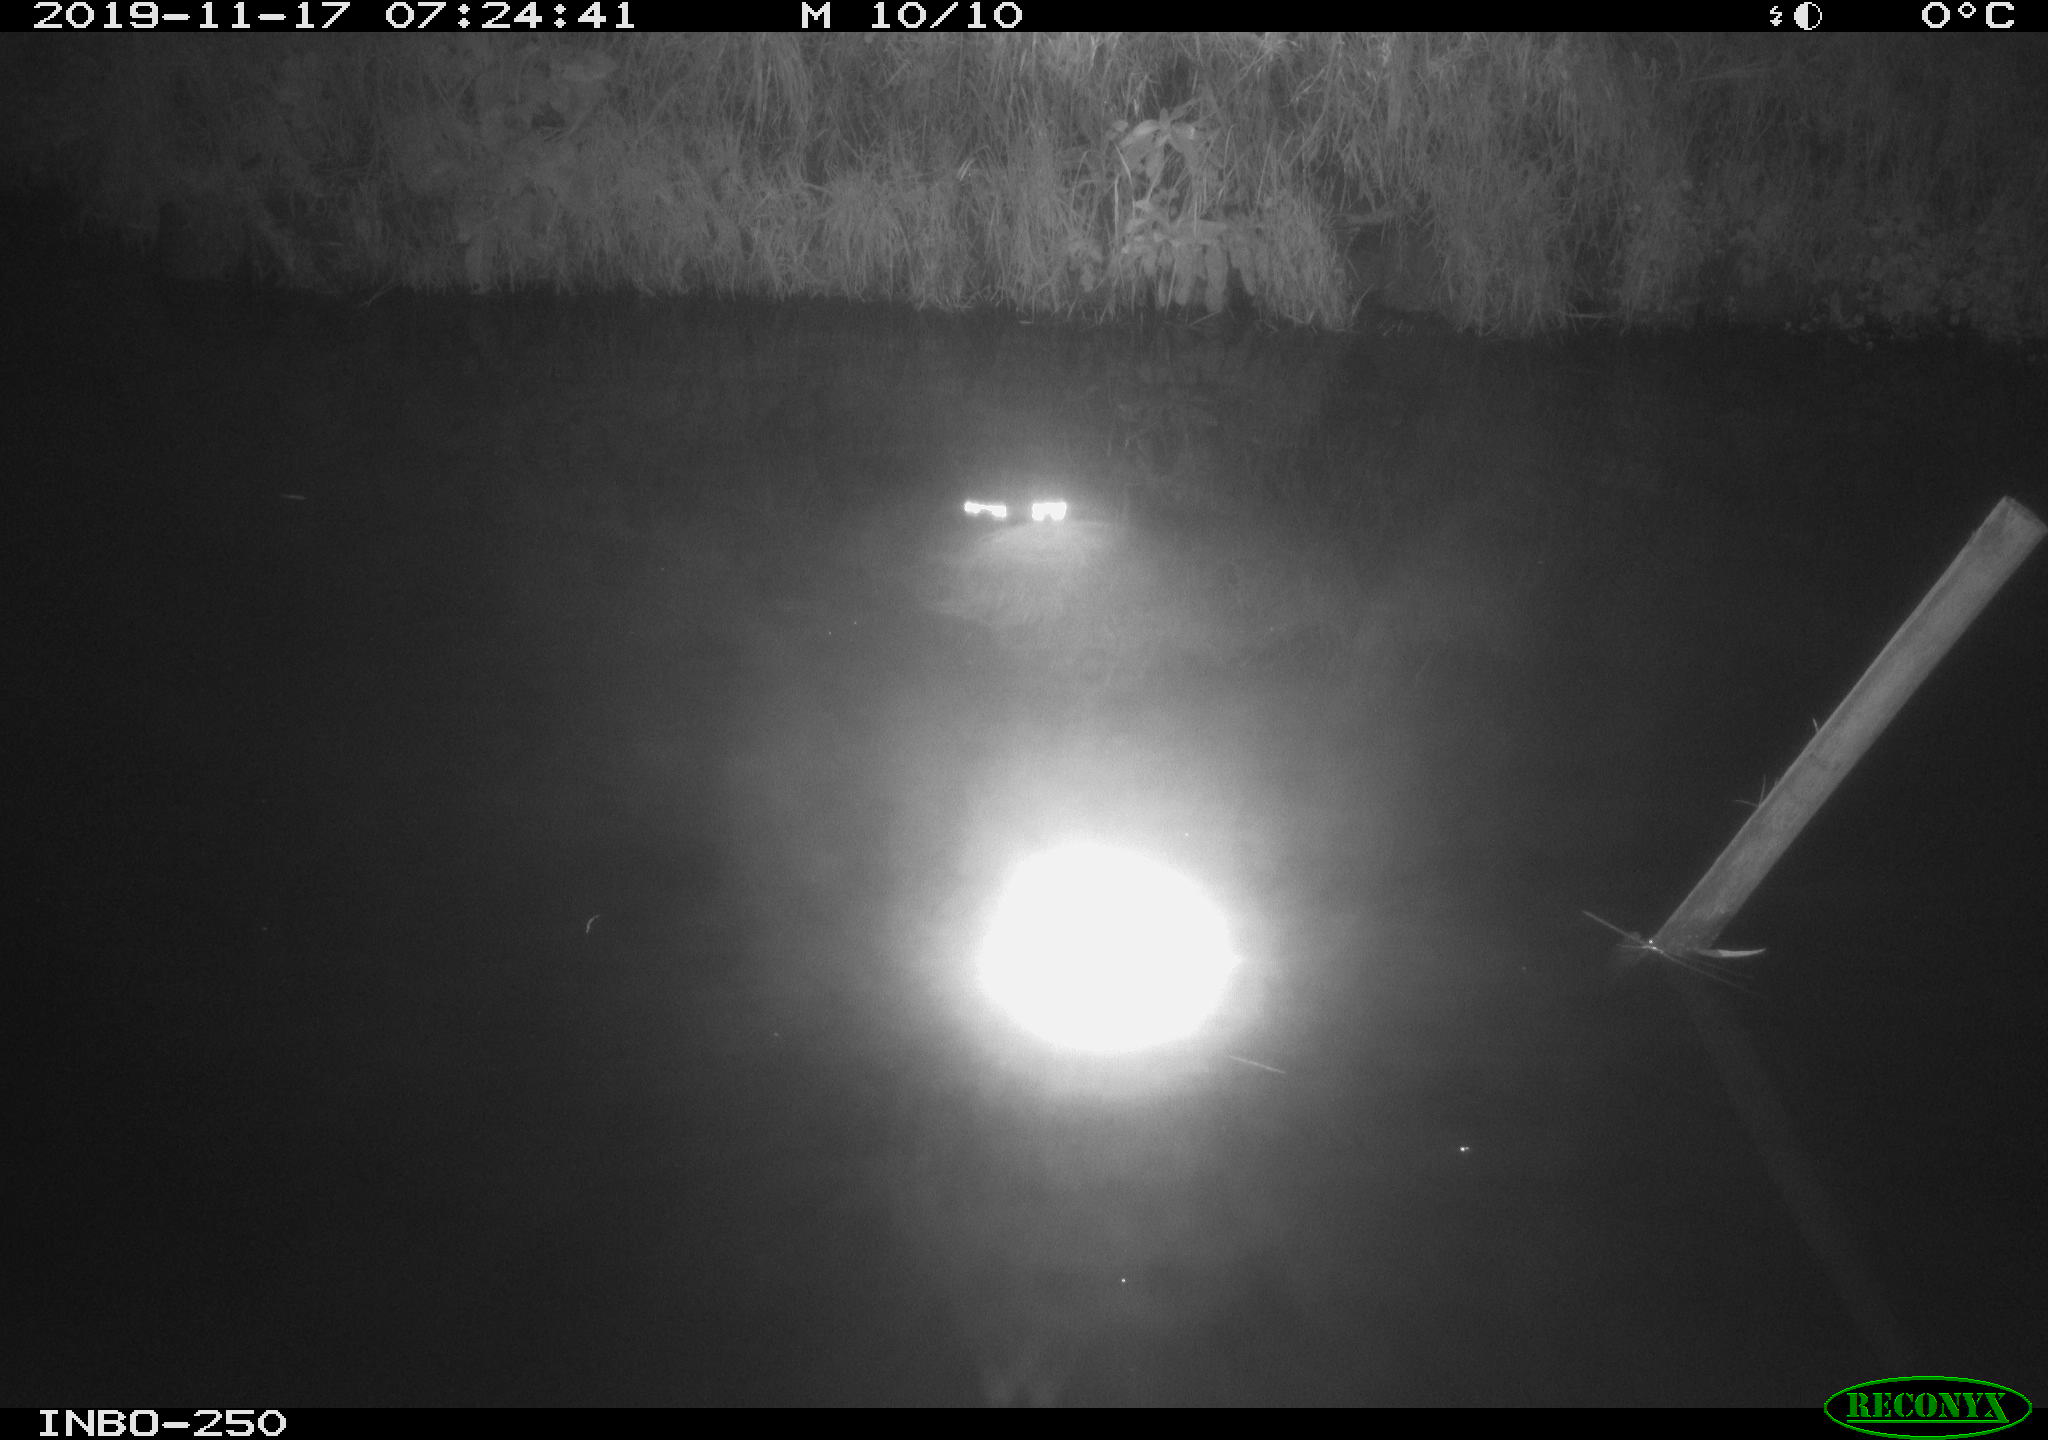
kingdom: Animalia
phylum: Chordata
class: Aves
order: Anseriformes
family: Anatidae
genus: Anas
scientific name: Anas platyrhynchos
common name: Mallard
